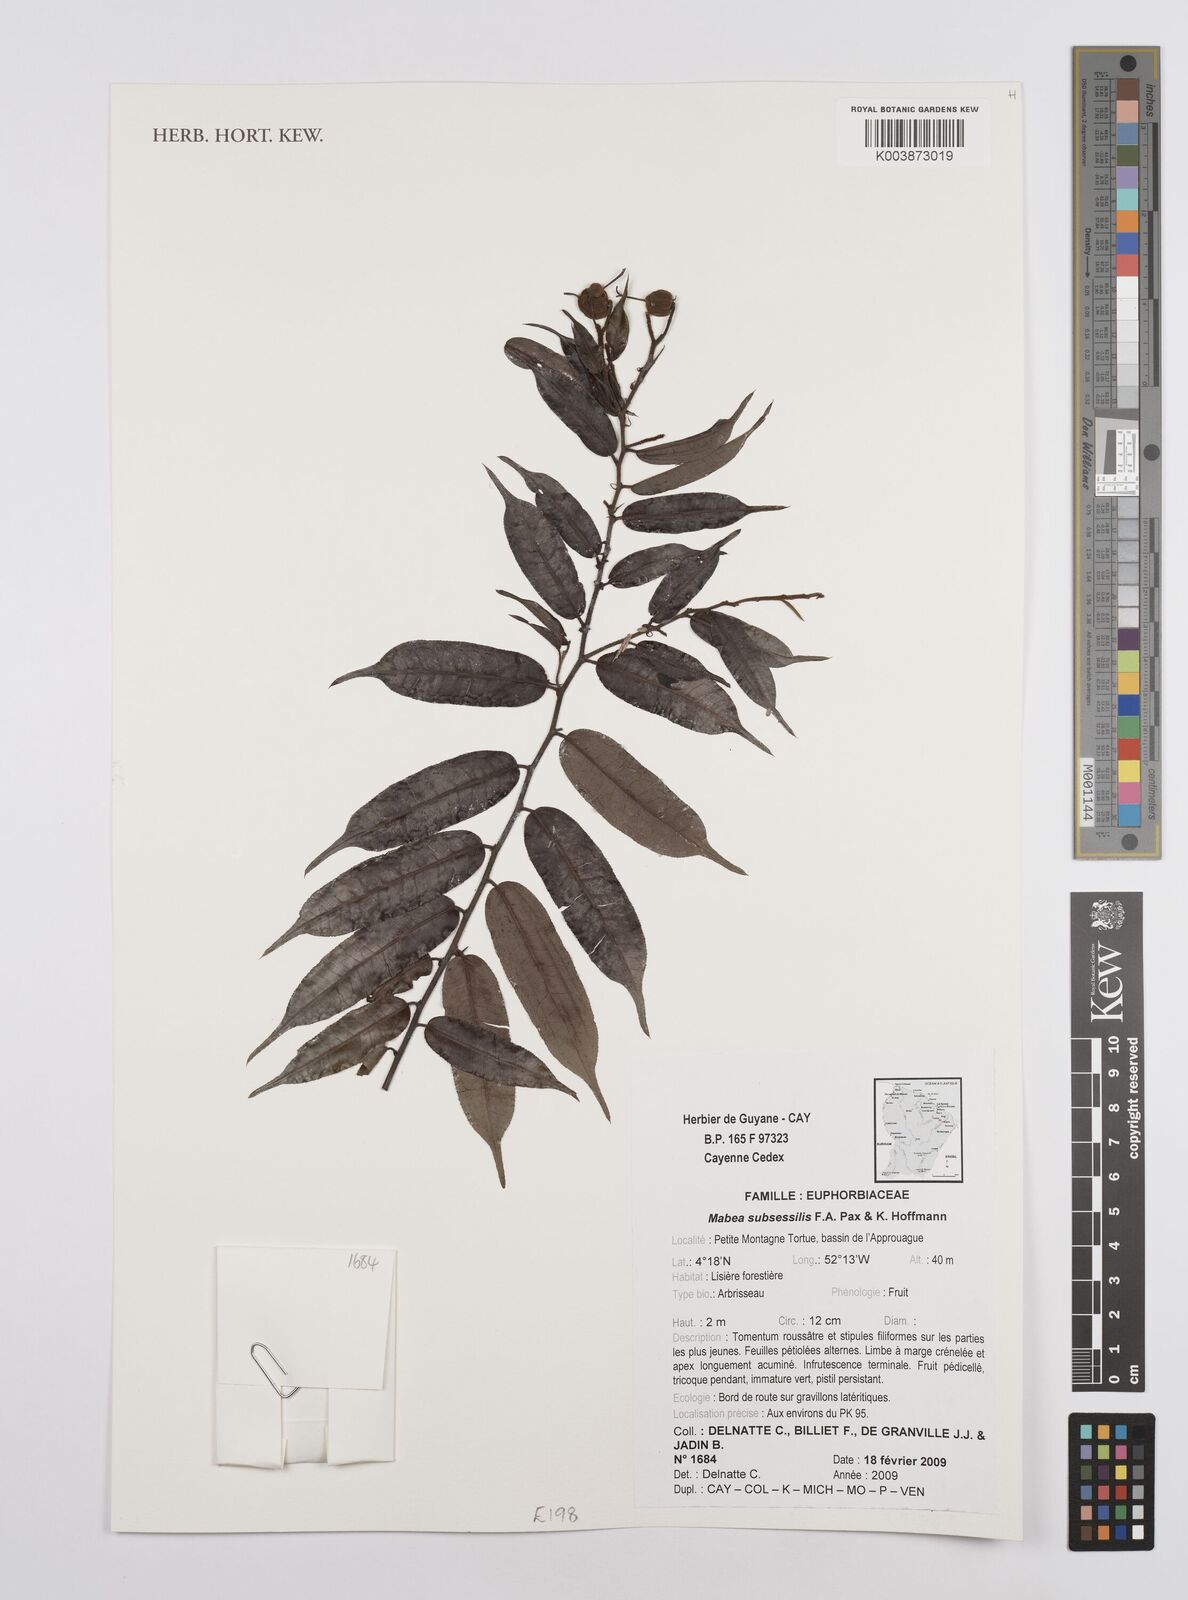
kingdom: Plantae
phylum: Tracheophyta
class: Magnoliopsida
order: Malpighiales
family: Euphorbiaceae
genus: Mabea
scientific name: Mabea subsessilis
